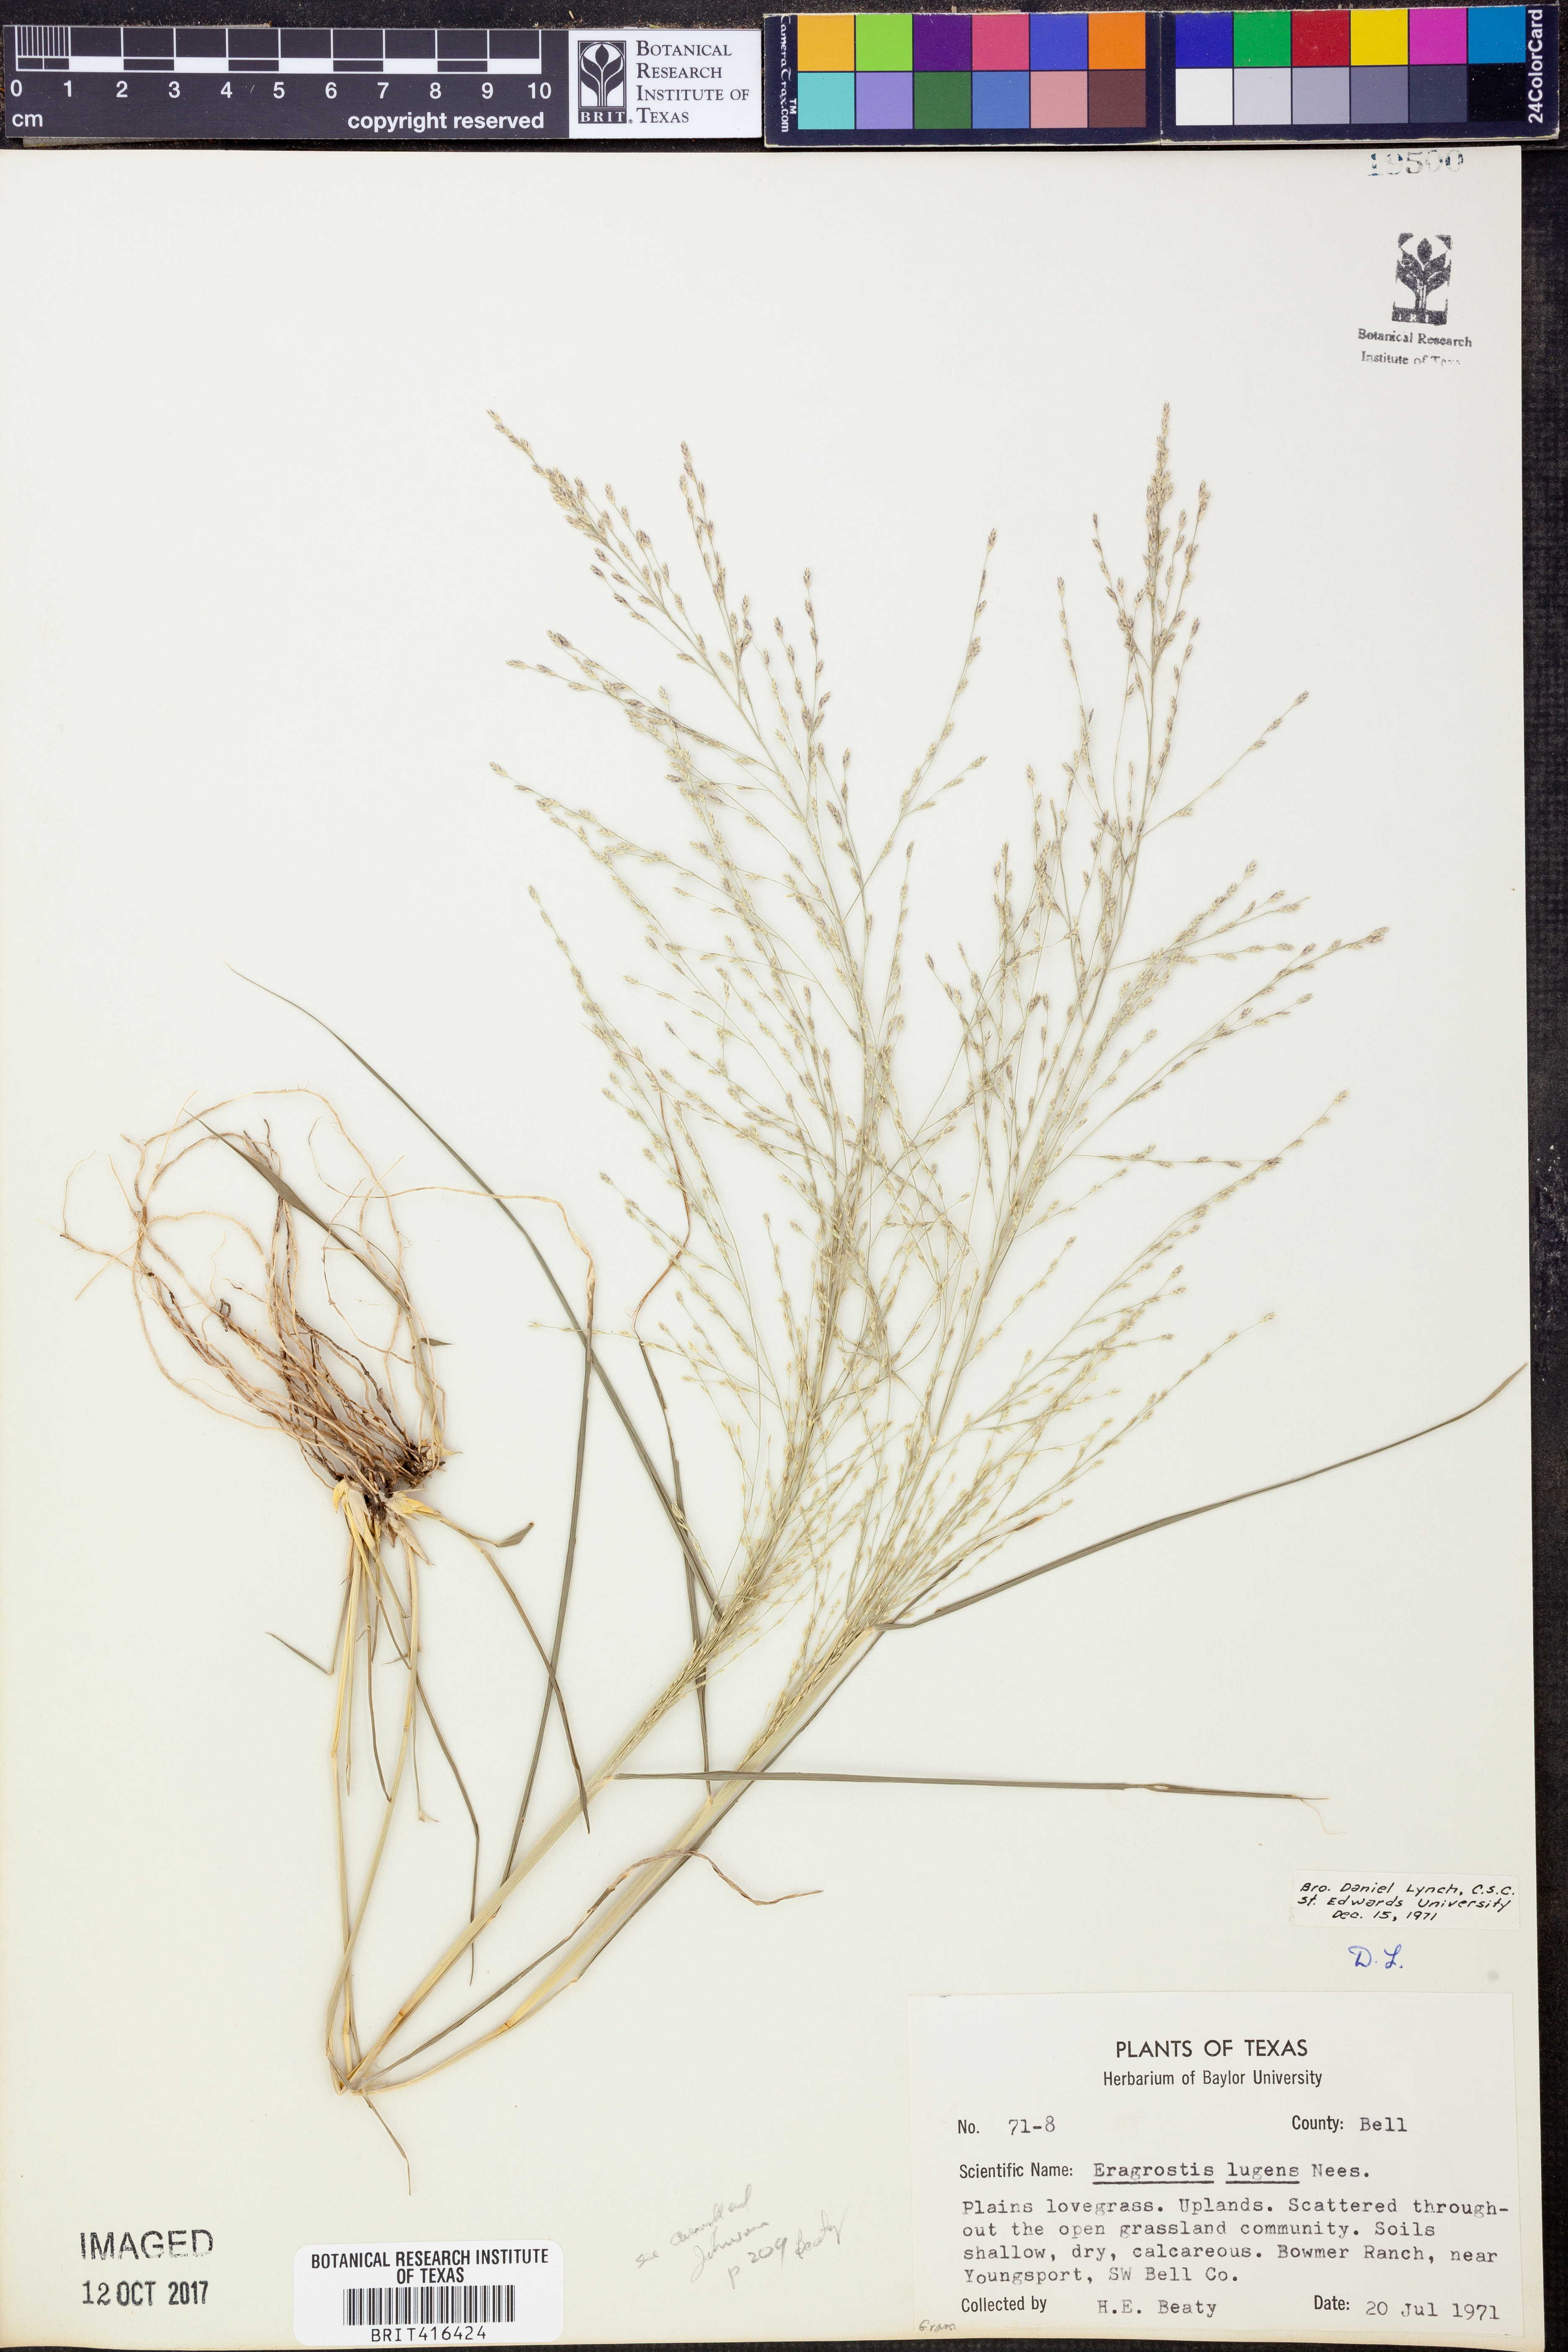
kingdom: Plantae
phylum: Tracheophyta
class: Liliopsida
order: Poales
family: Poaceae
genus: Eragrostis
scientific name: Eragrostis capillaris
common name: Hair-like lovegrass
